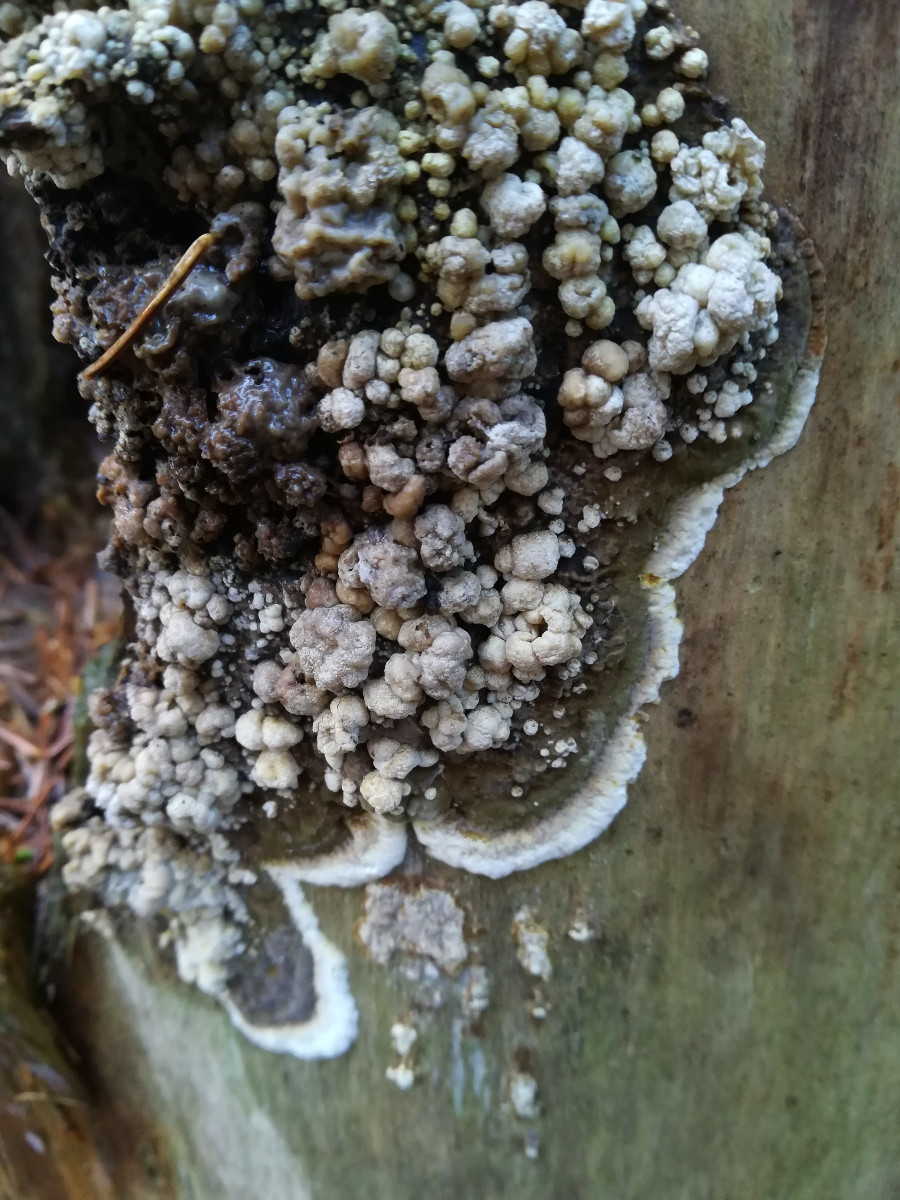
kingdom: Fungi
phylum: Ascomycota
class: Sordariomycetes
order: Xylariales
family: Hypoxylaceae
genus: Nodulisporium
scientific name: Nodulisporium cecidiogenes
